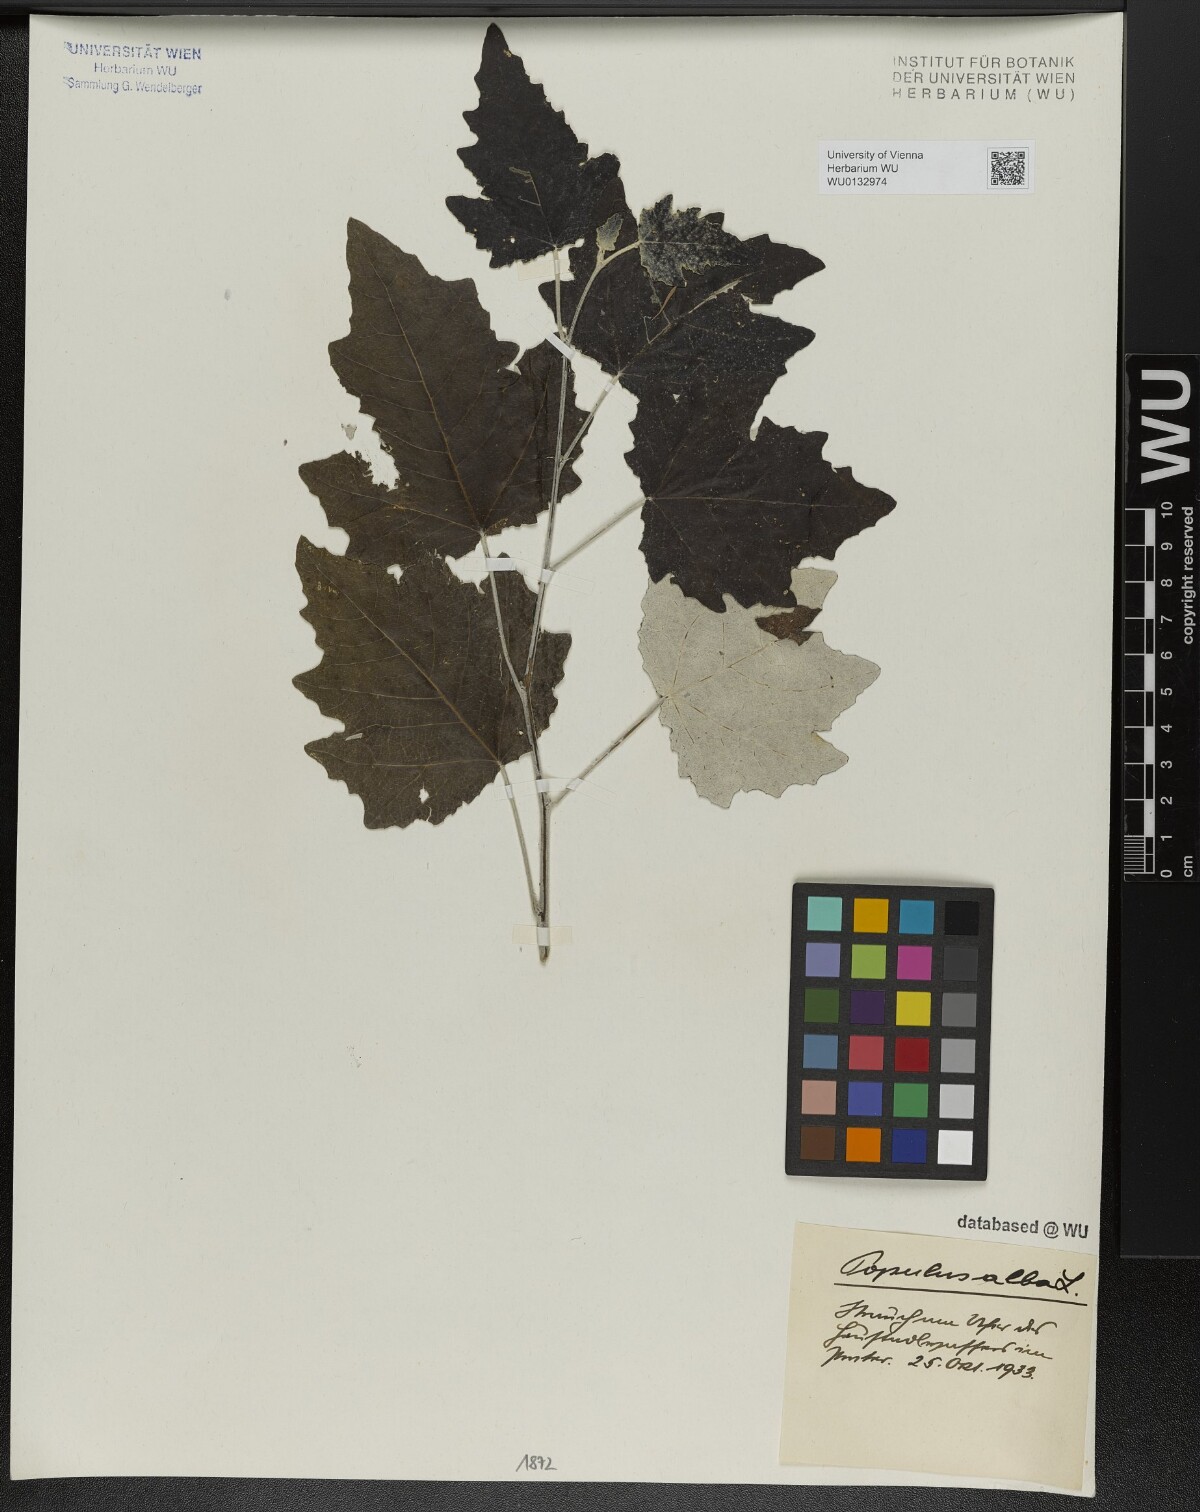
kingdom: Plantae
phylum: Tracheophyta
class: Magnoliopsida
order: Malpighiales
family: Salicaceae
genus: Populus
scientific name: Populus alba
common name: White poplar
